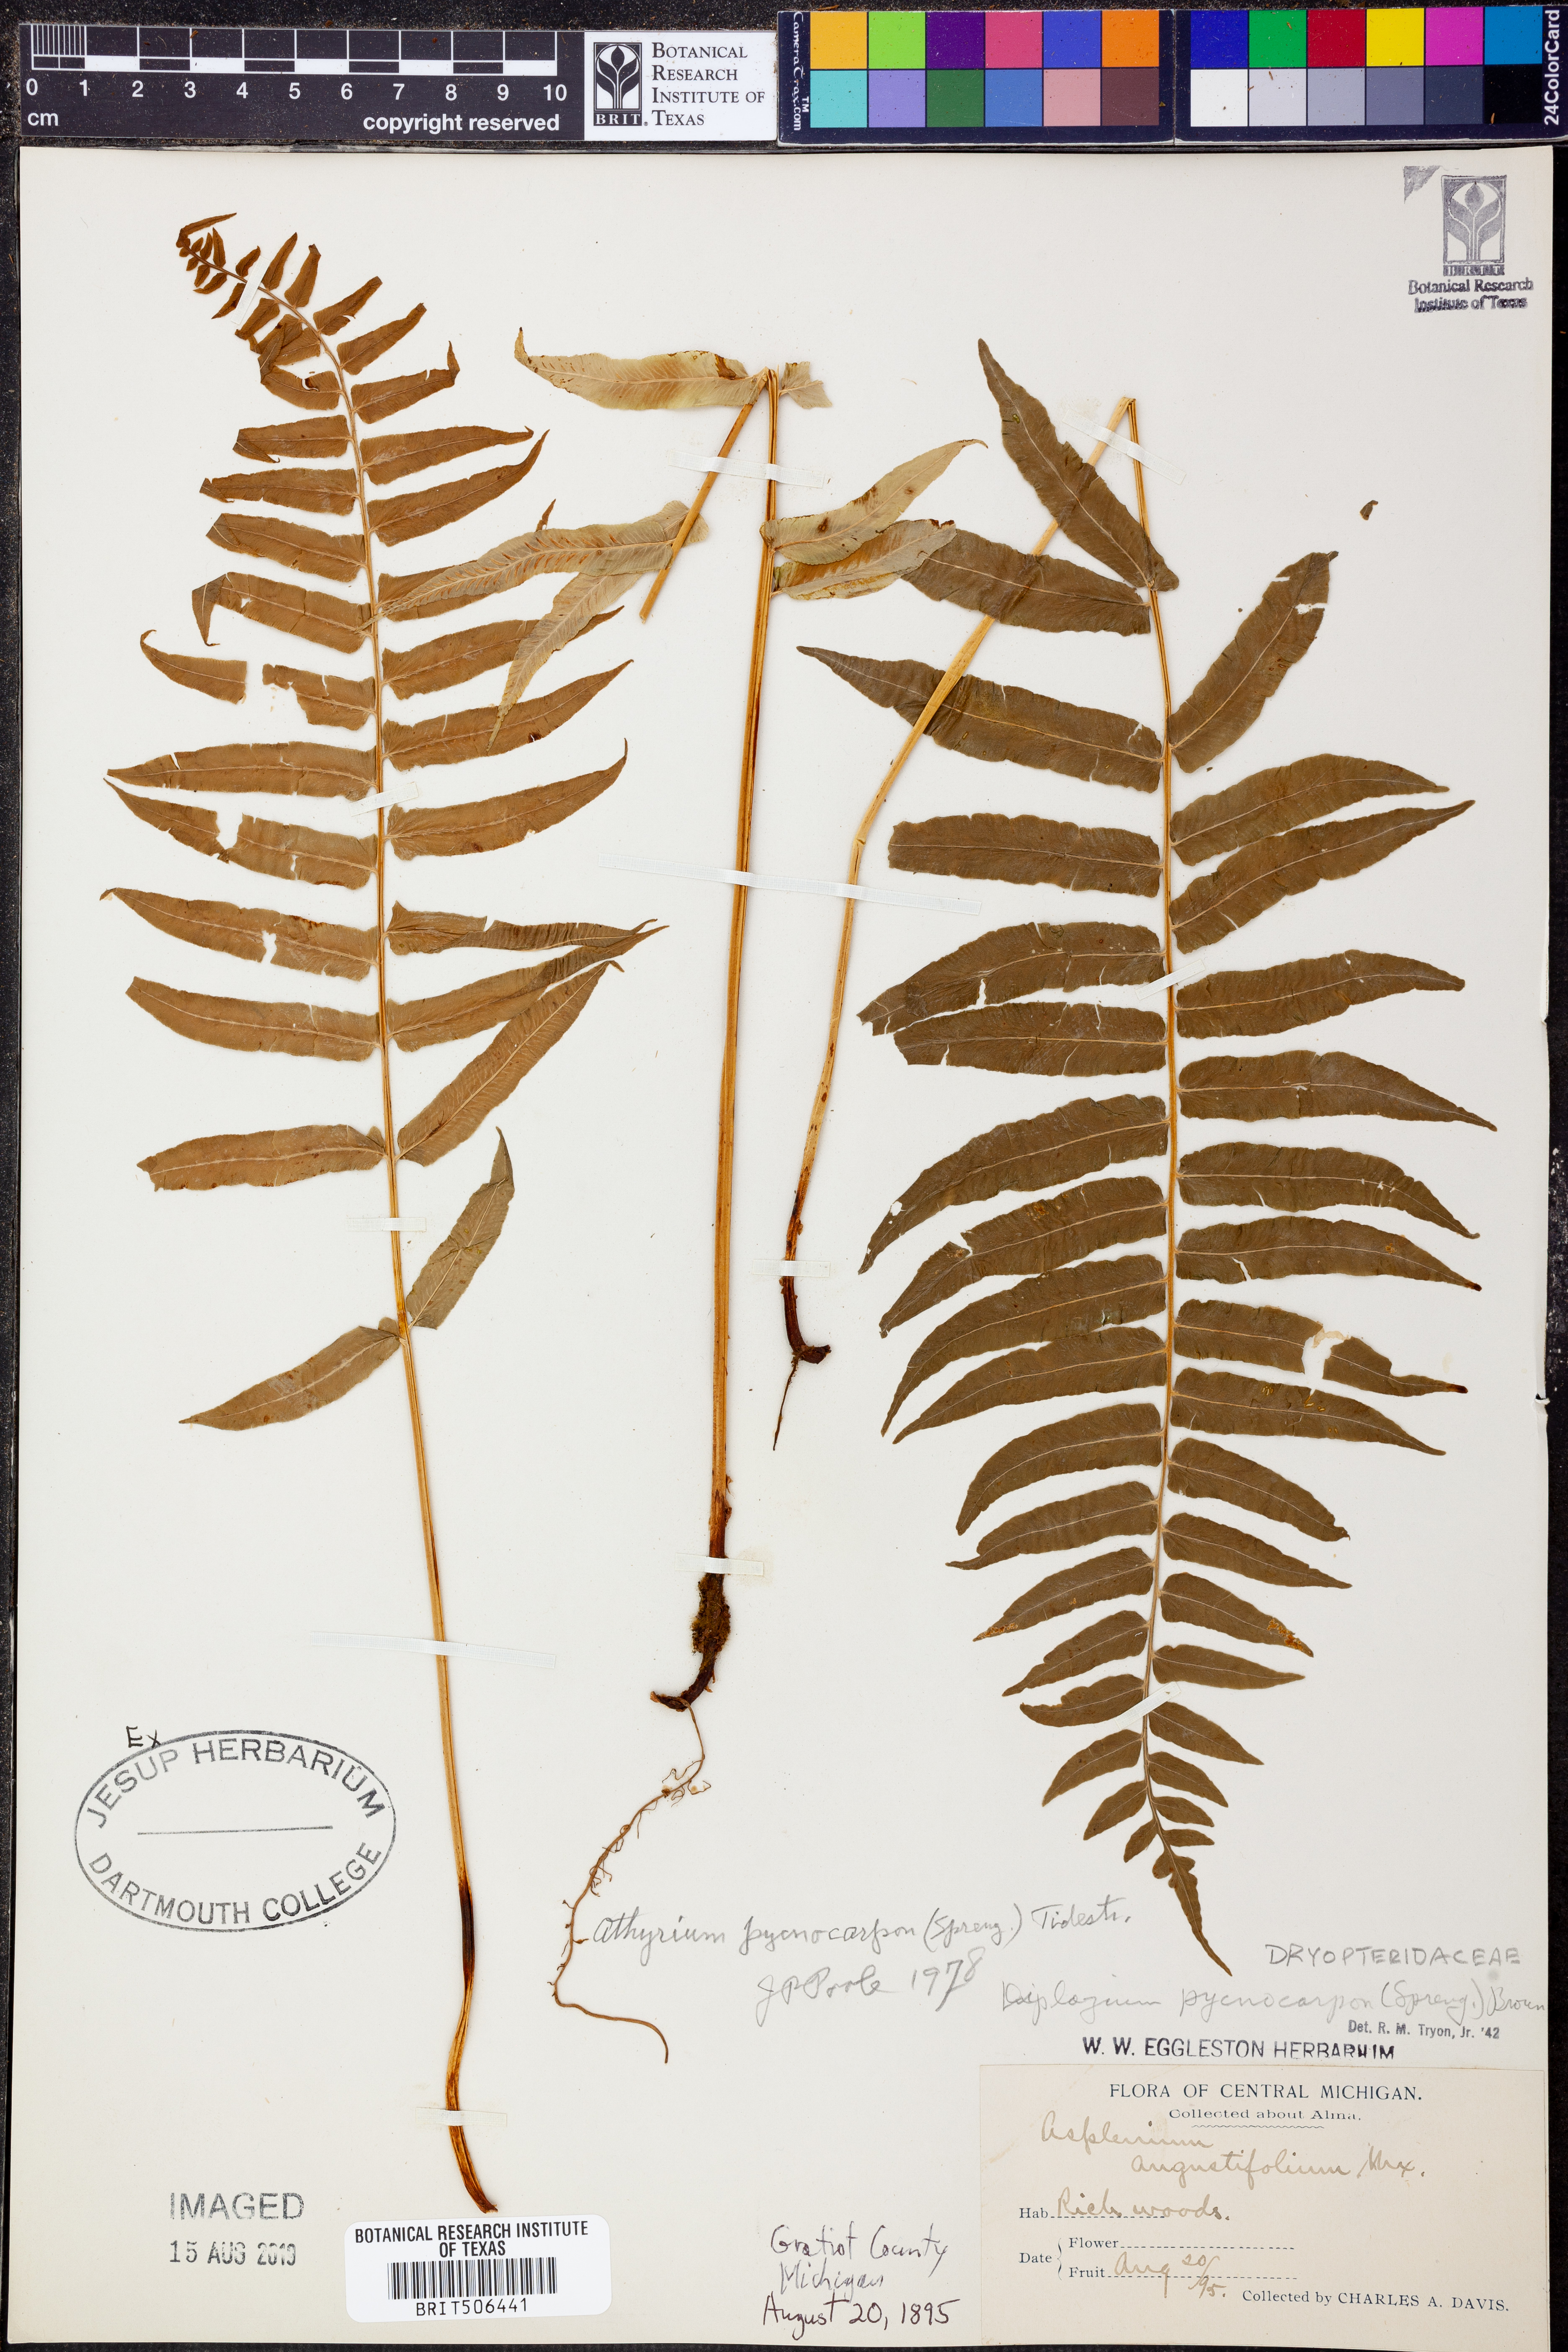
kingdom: Plantae
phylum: Tracheophyta
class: Polypodiopsida
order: Polypodiales
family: Diplaziopsidaceae
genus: Homalosorus
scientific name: Homalosorus pycnocarpos
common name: Glade fern
